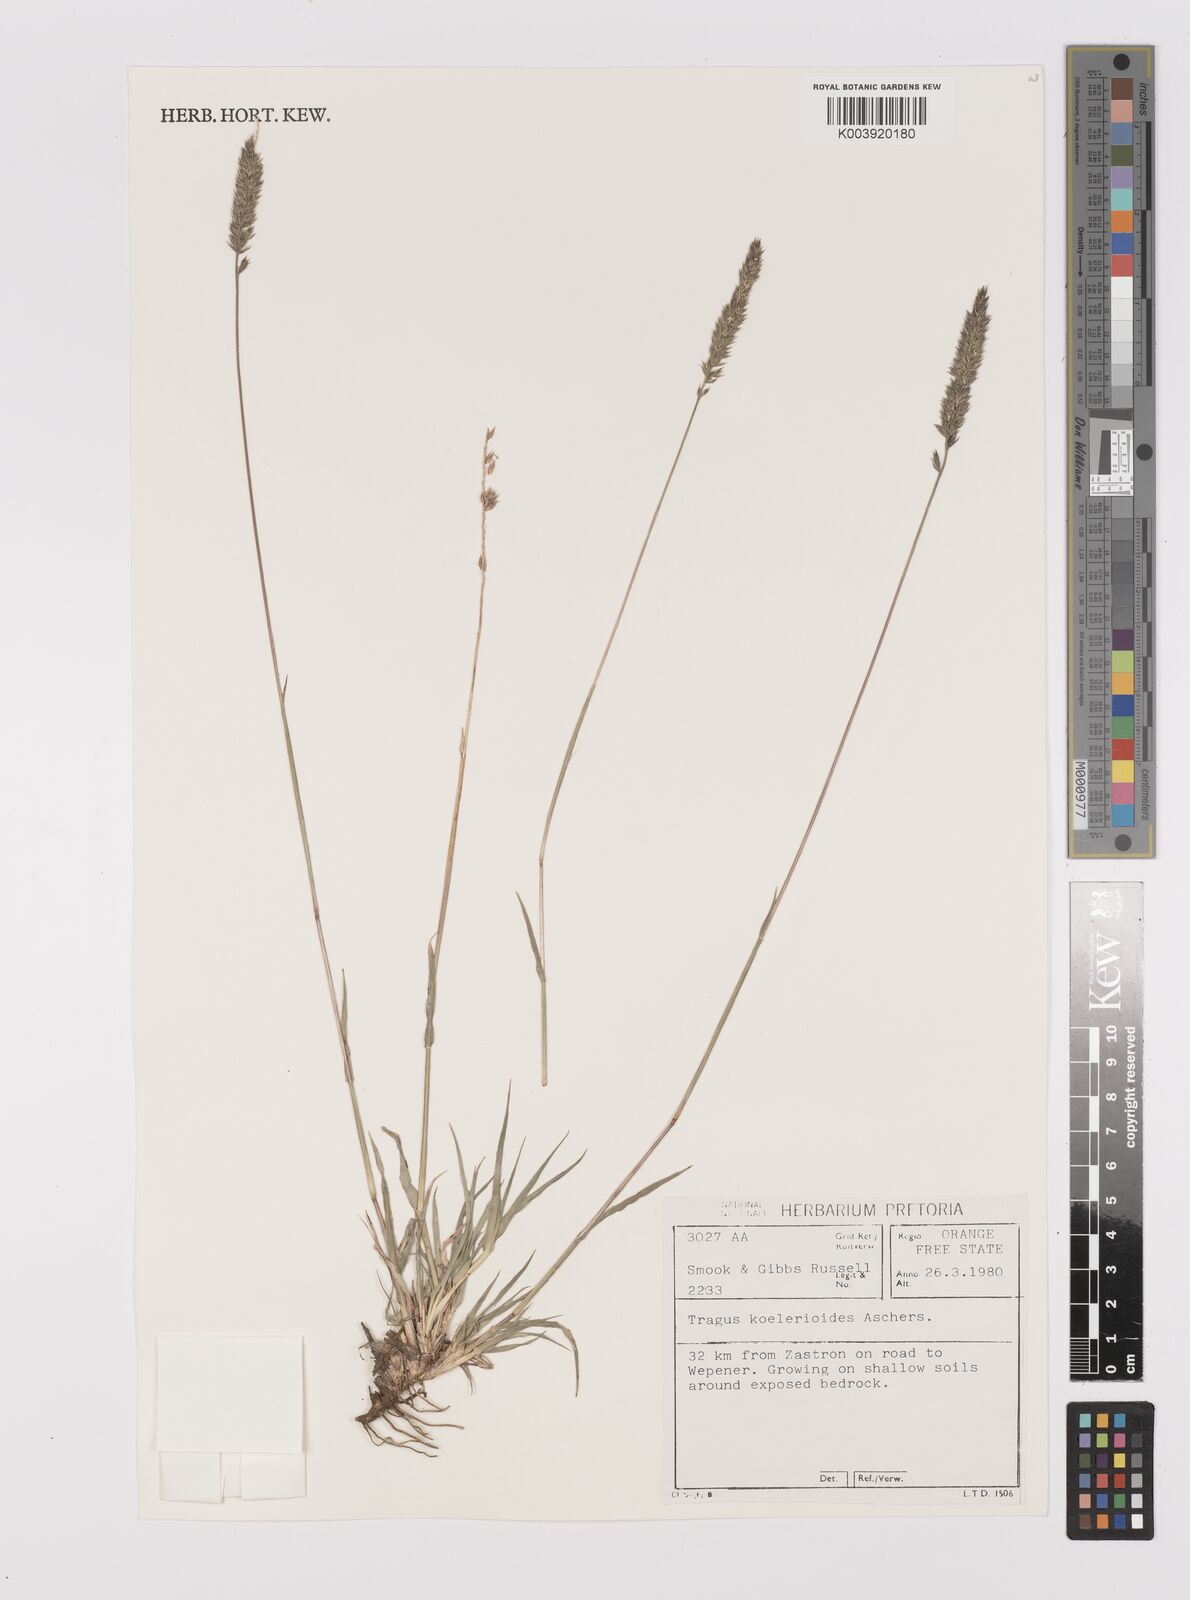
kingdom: Plantae
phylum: Tracheophyta
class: Liliopsida
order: Poales
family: Poaceae
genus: Tragus
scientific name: Tragus koelerioides
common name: Creeping carrot-seed grass
